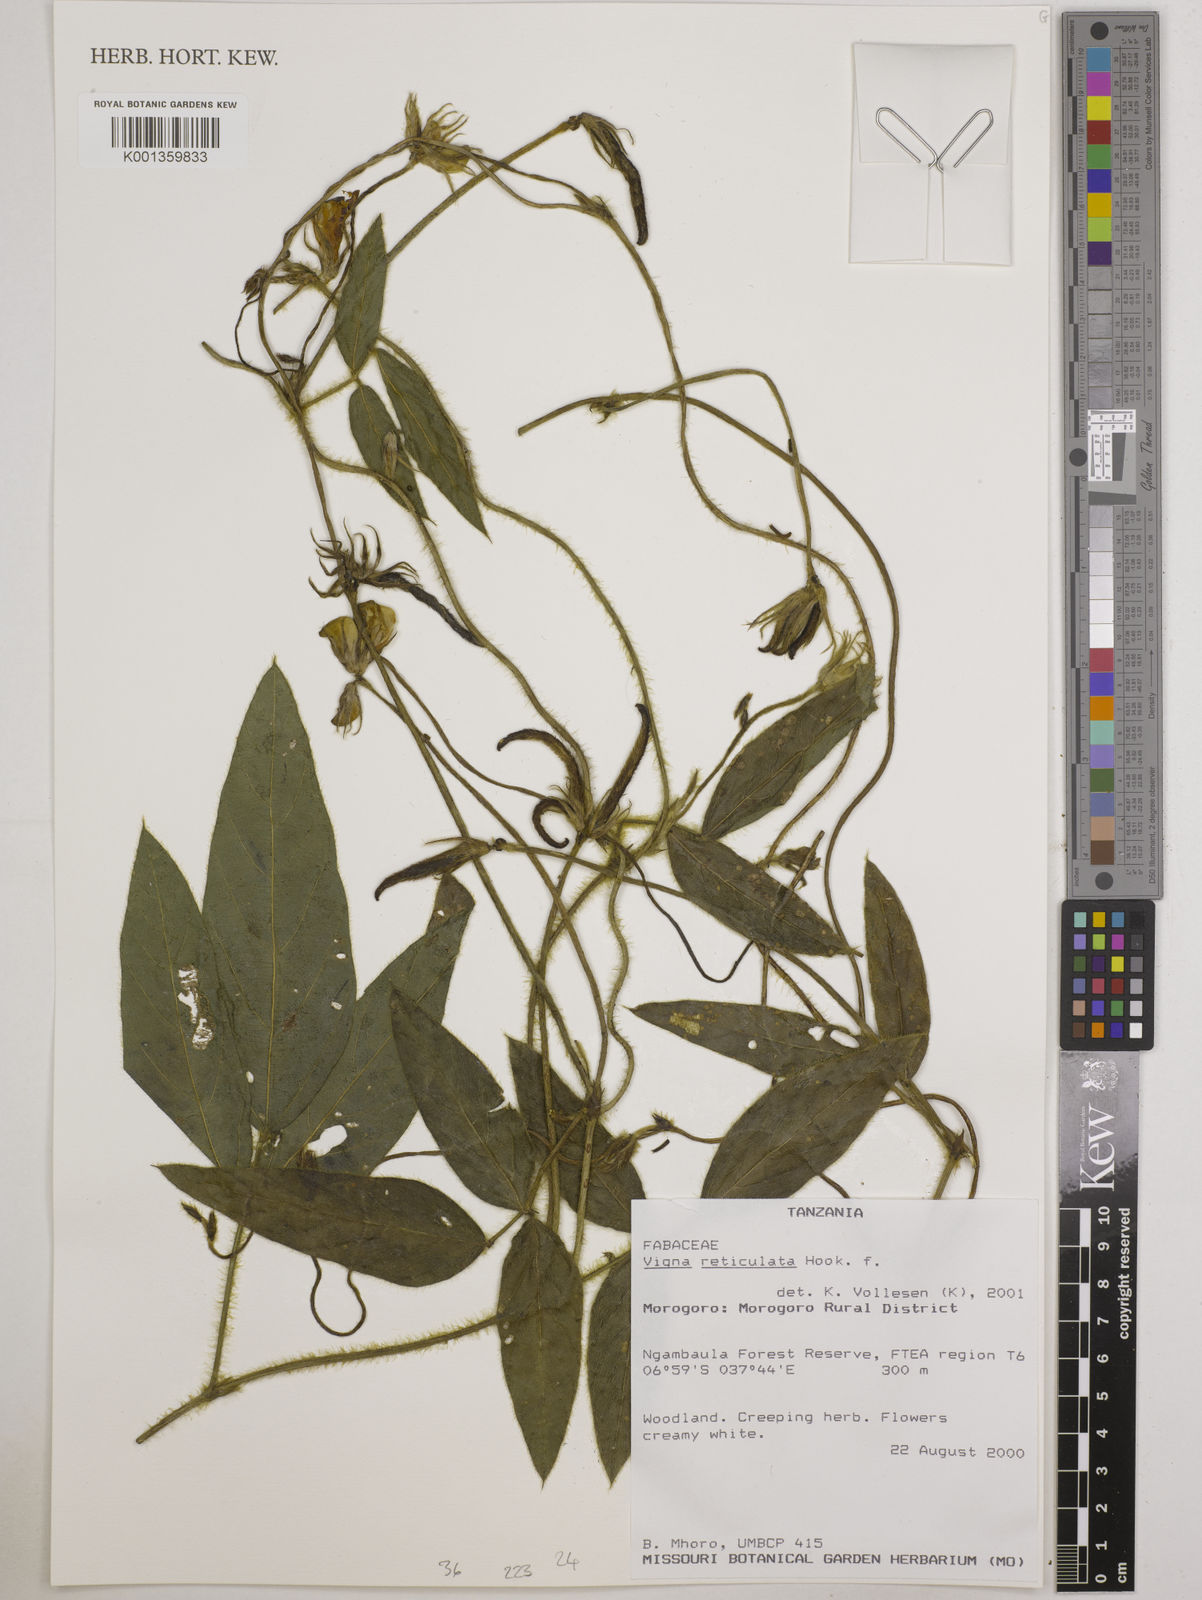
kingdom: Plantae
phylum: Tracheophyta
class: Magnoliopsida
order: Fabales
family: Fabaceae
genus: Vigna
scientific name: Vigna reticulata
